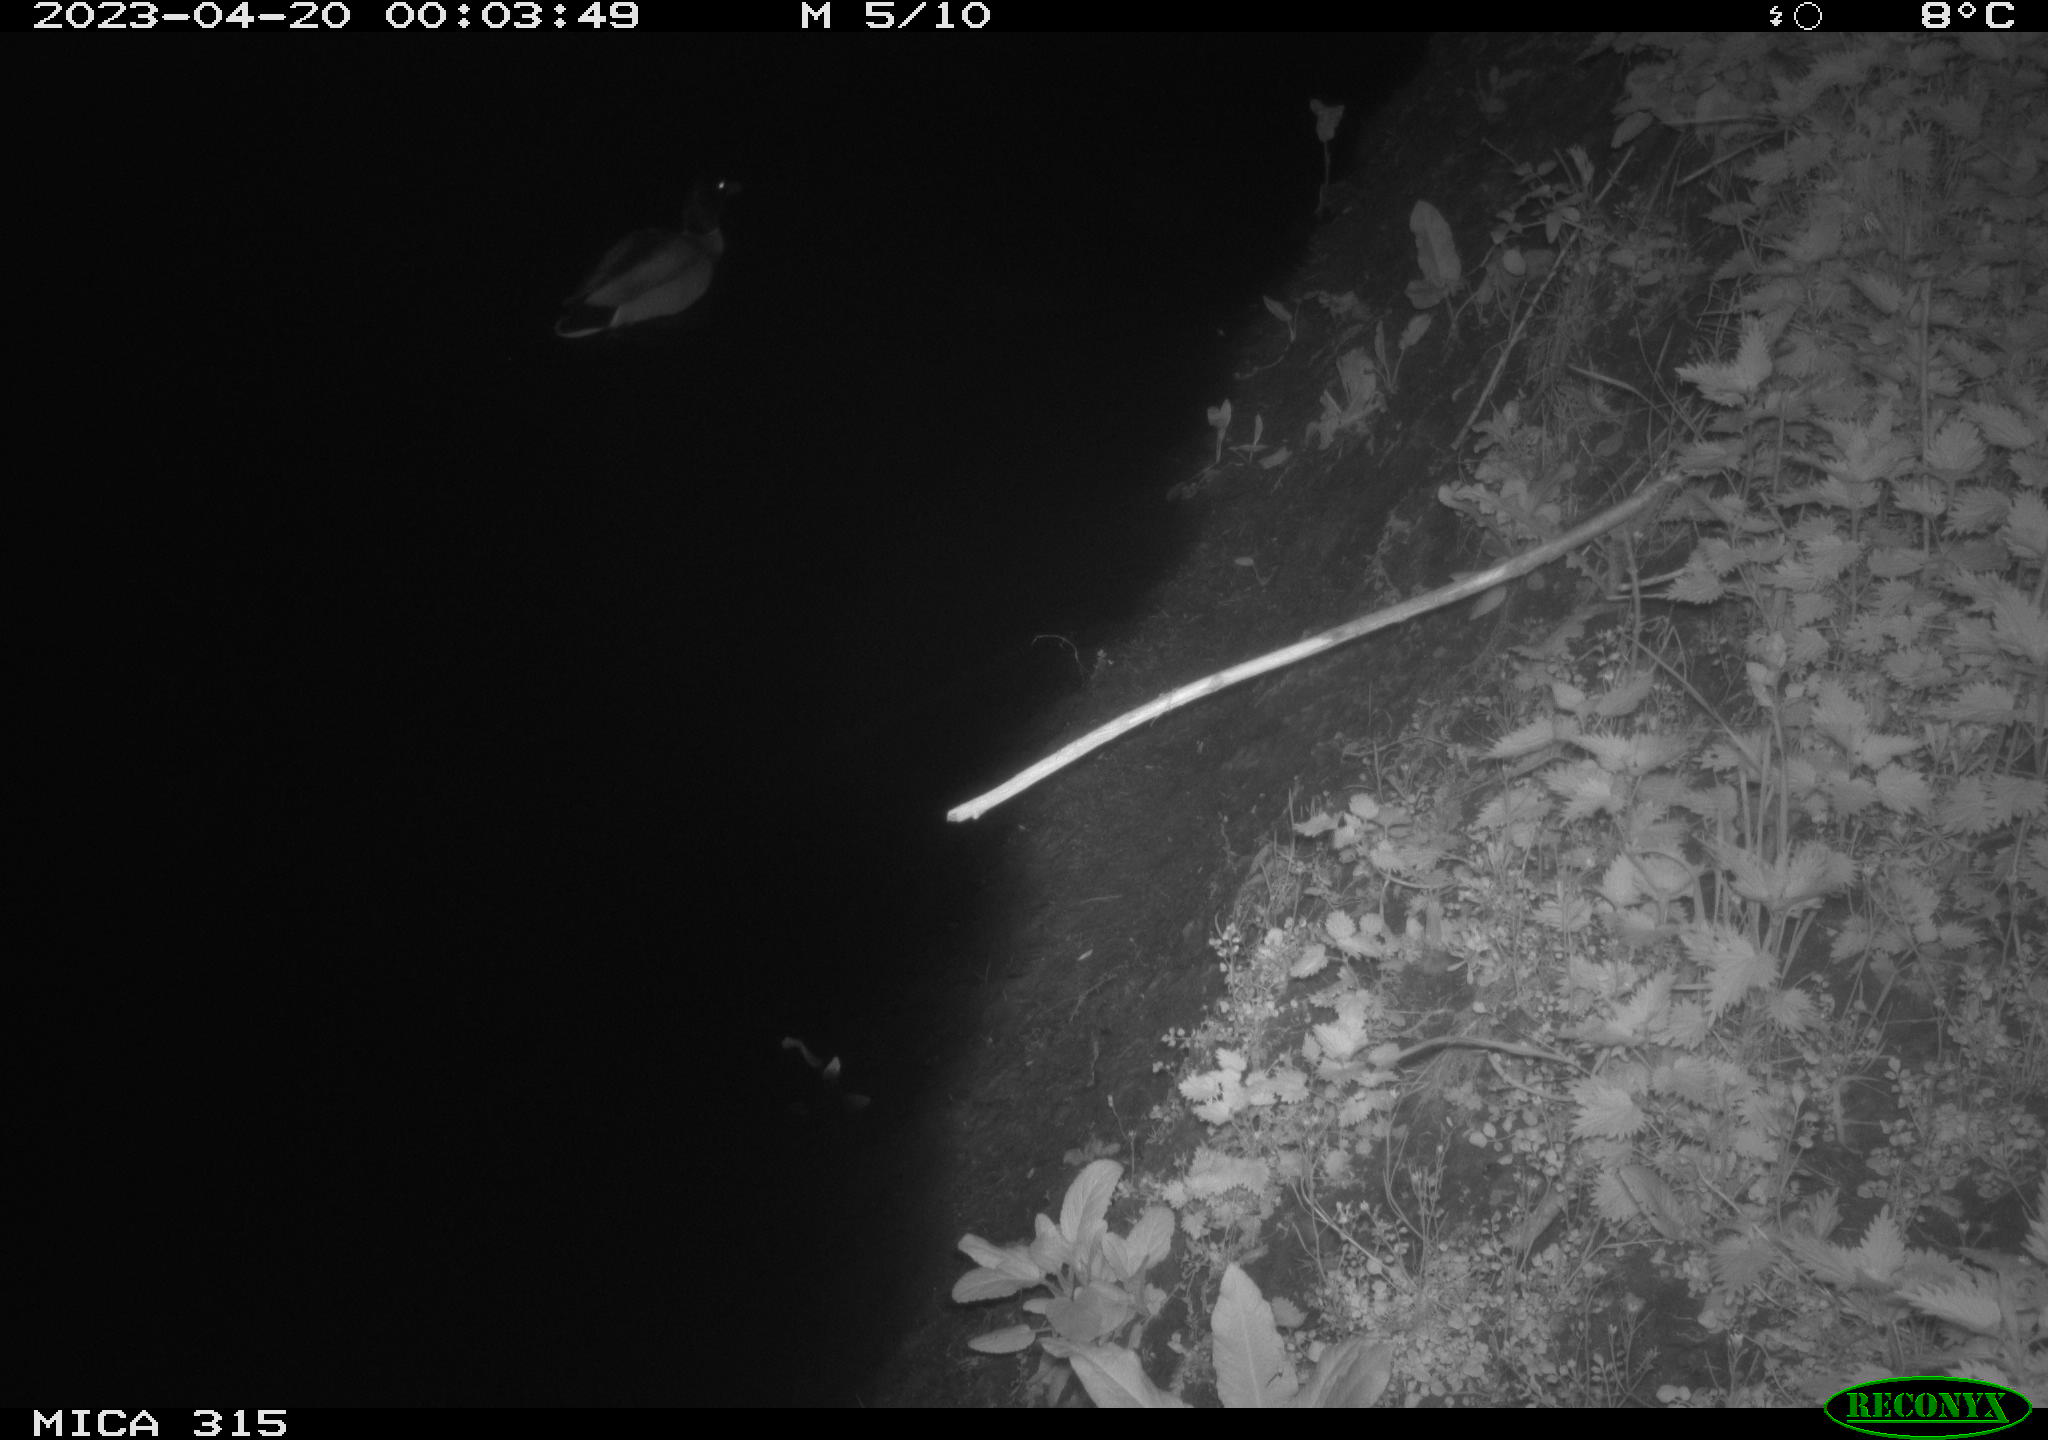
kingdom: Animalia
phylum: Chordata
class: Aves
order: Anseriformes
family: Anatidae
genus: Anas
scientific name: Anas
